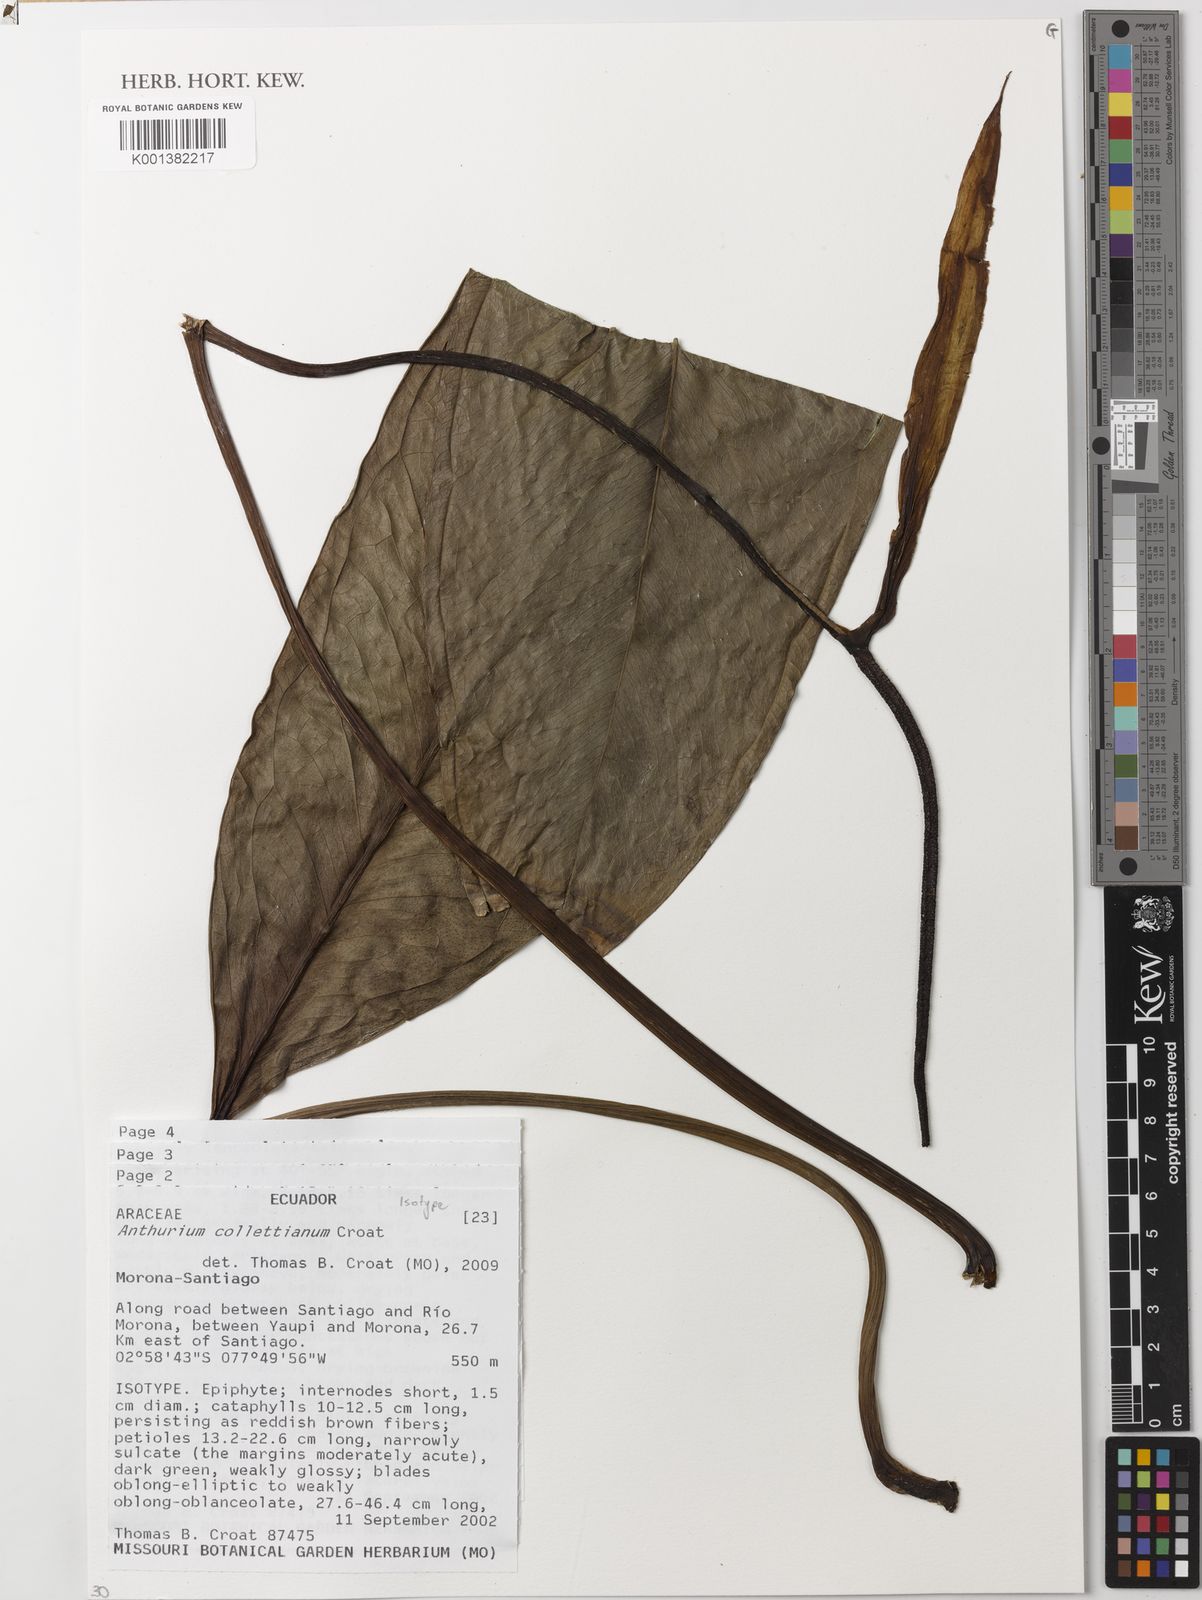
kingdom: Plantae
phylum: Tracheophyta
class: Liliopsida
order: Alismatales
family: Araceae
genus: Anthurium
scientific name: Anthurium collettianum
